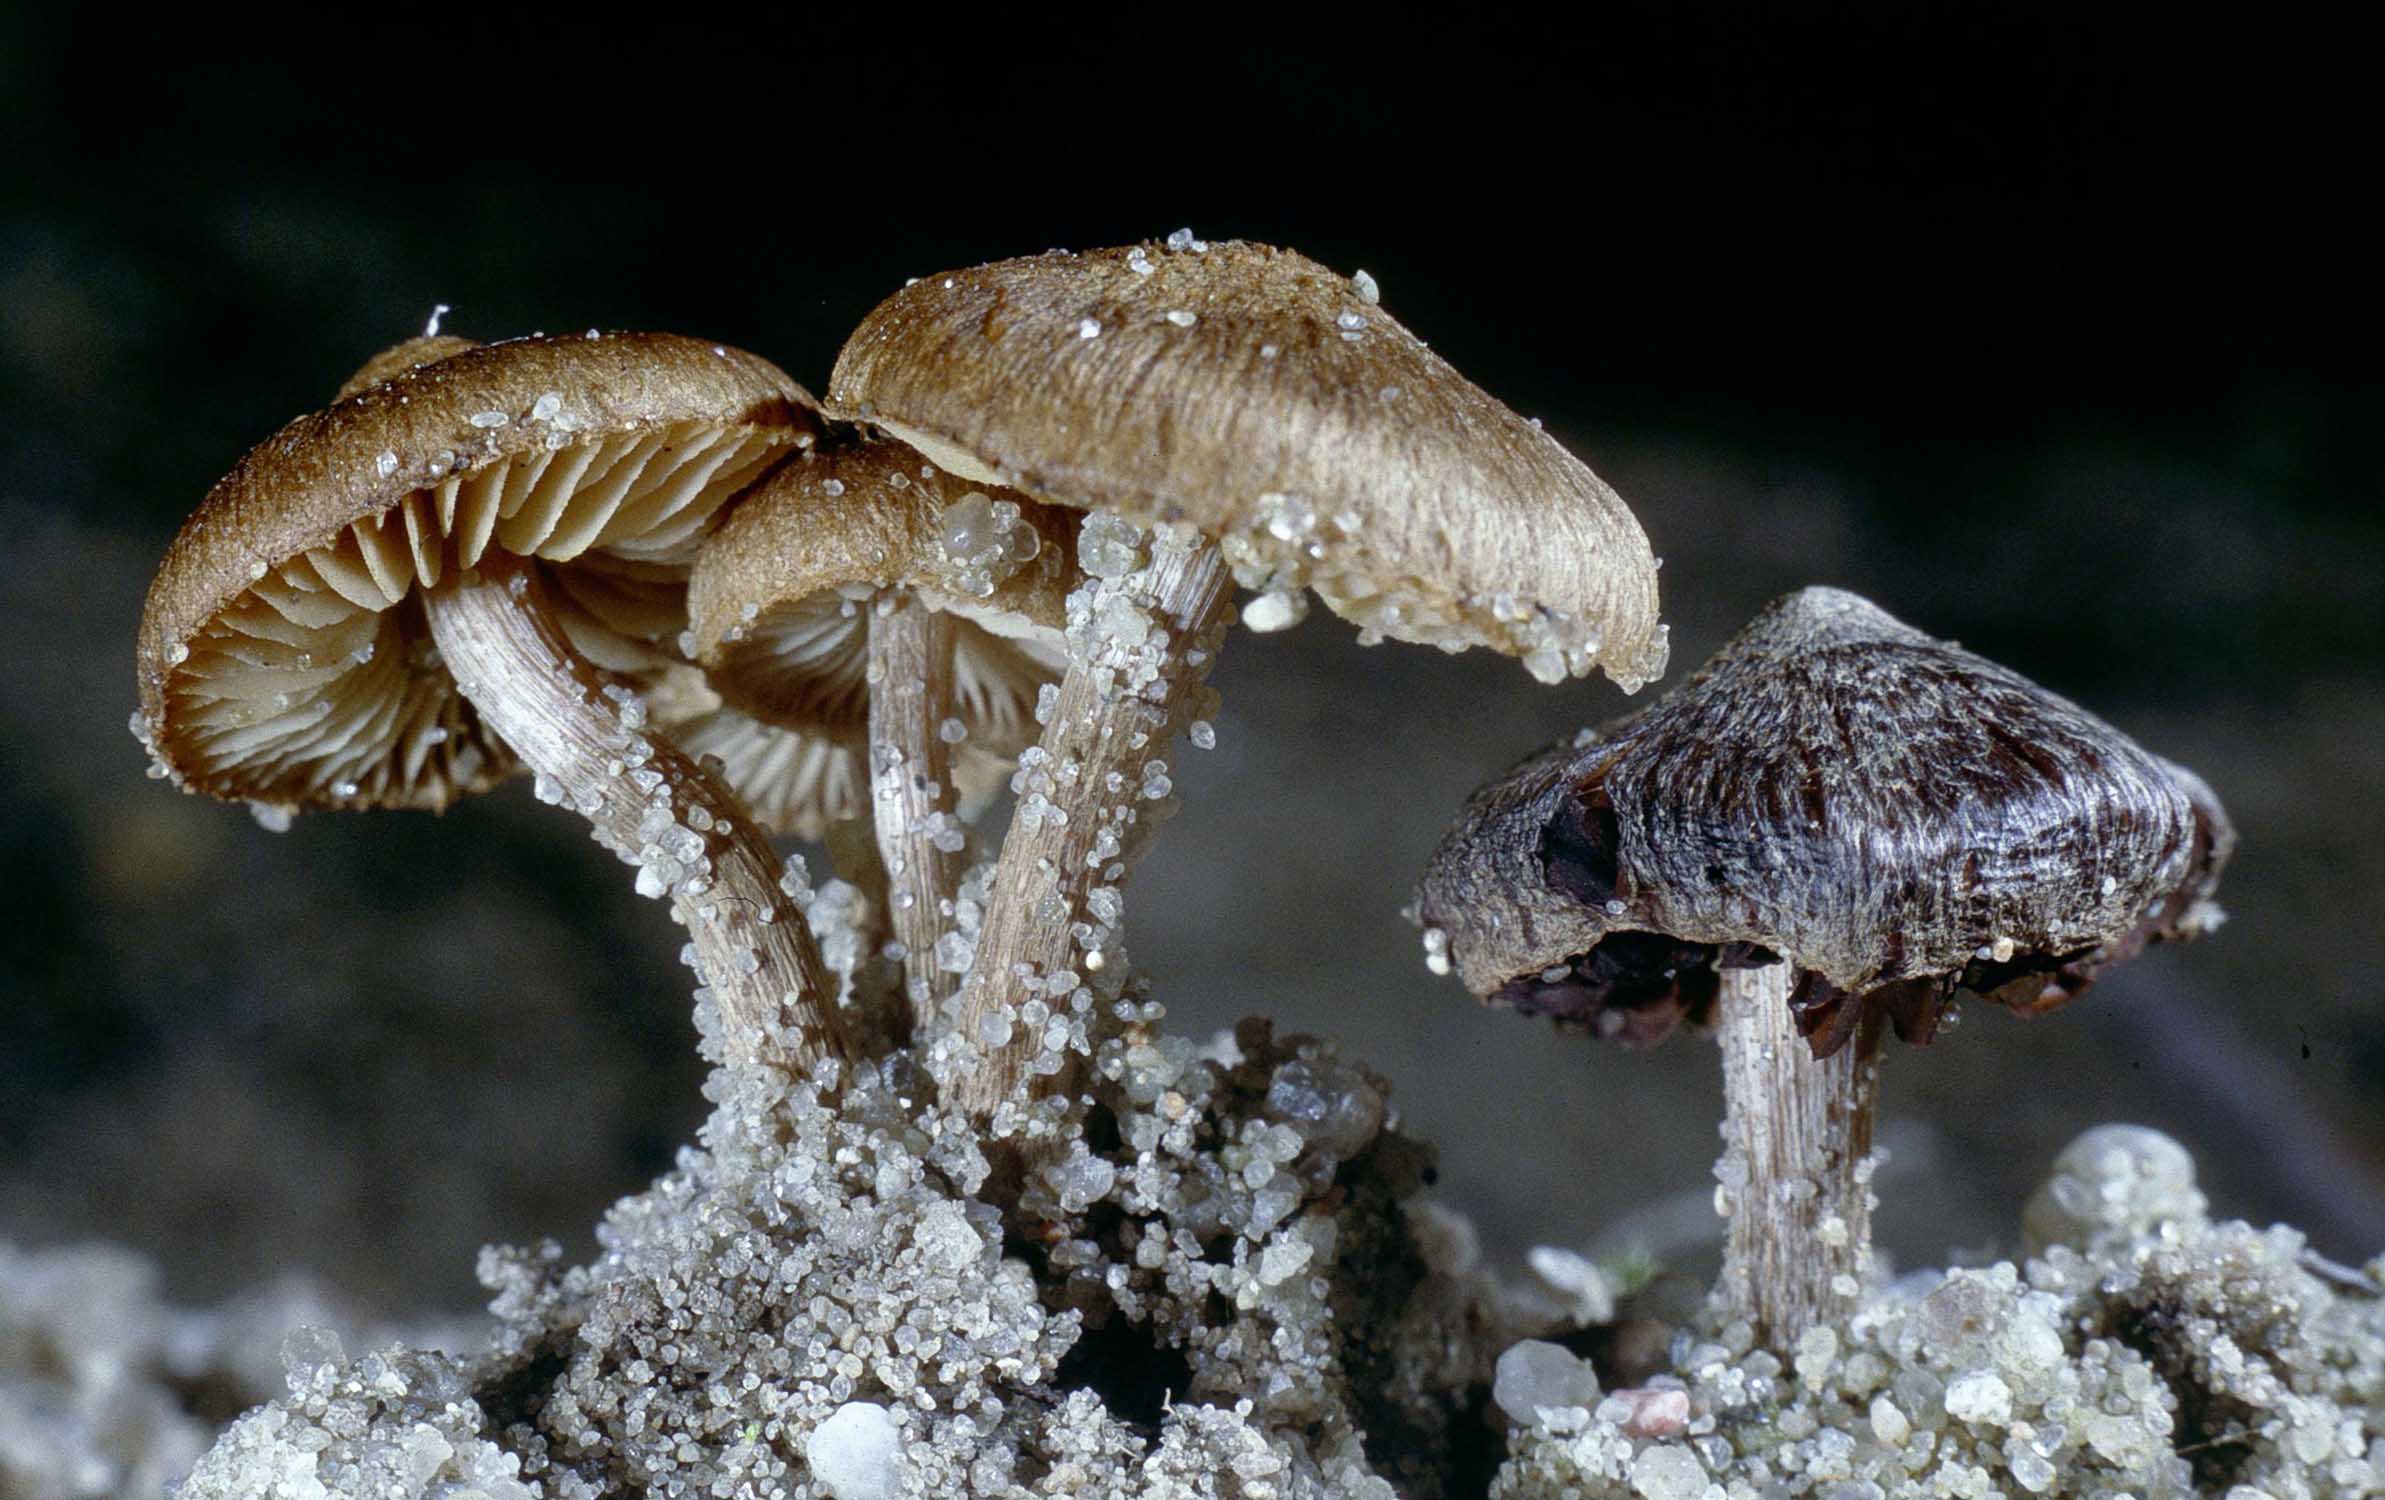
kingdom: Fungi
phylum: Basidiomycota
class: Agaricomycetes
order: Agaricales
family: Inocybaceae
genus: Inocybe
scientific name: Inocybe lacera
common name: laset trævlhat
